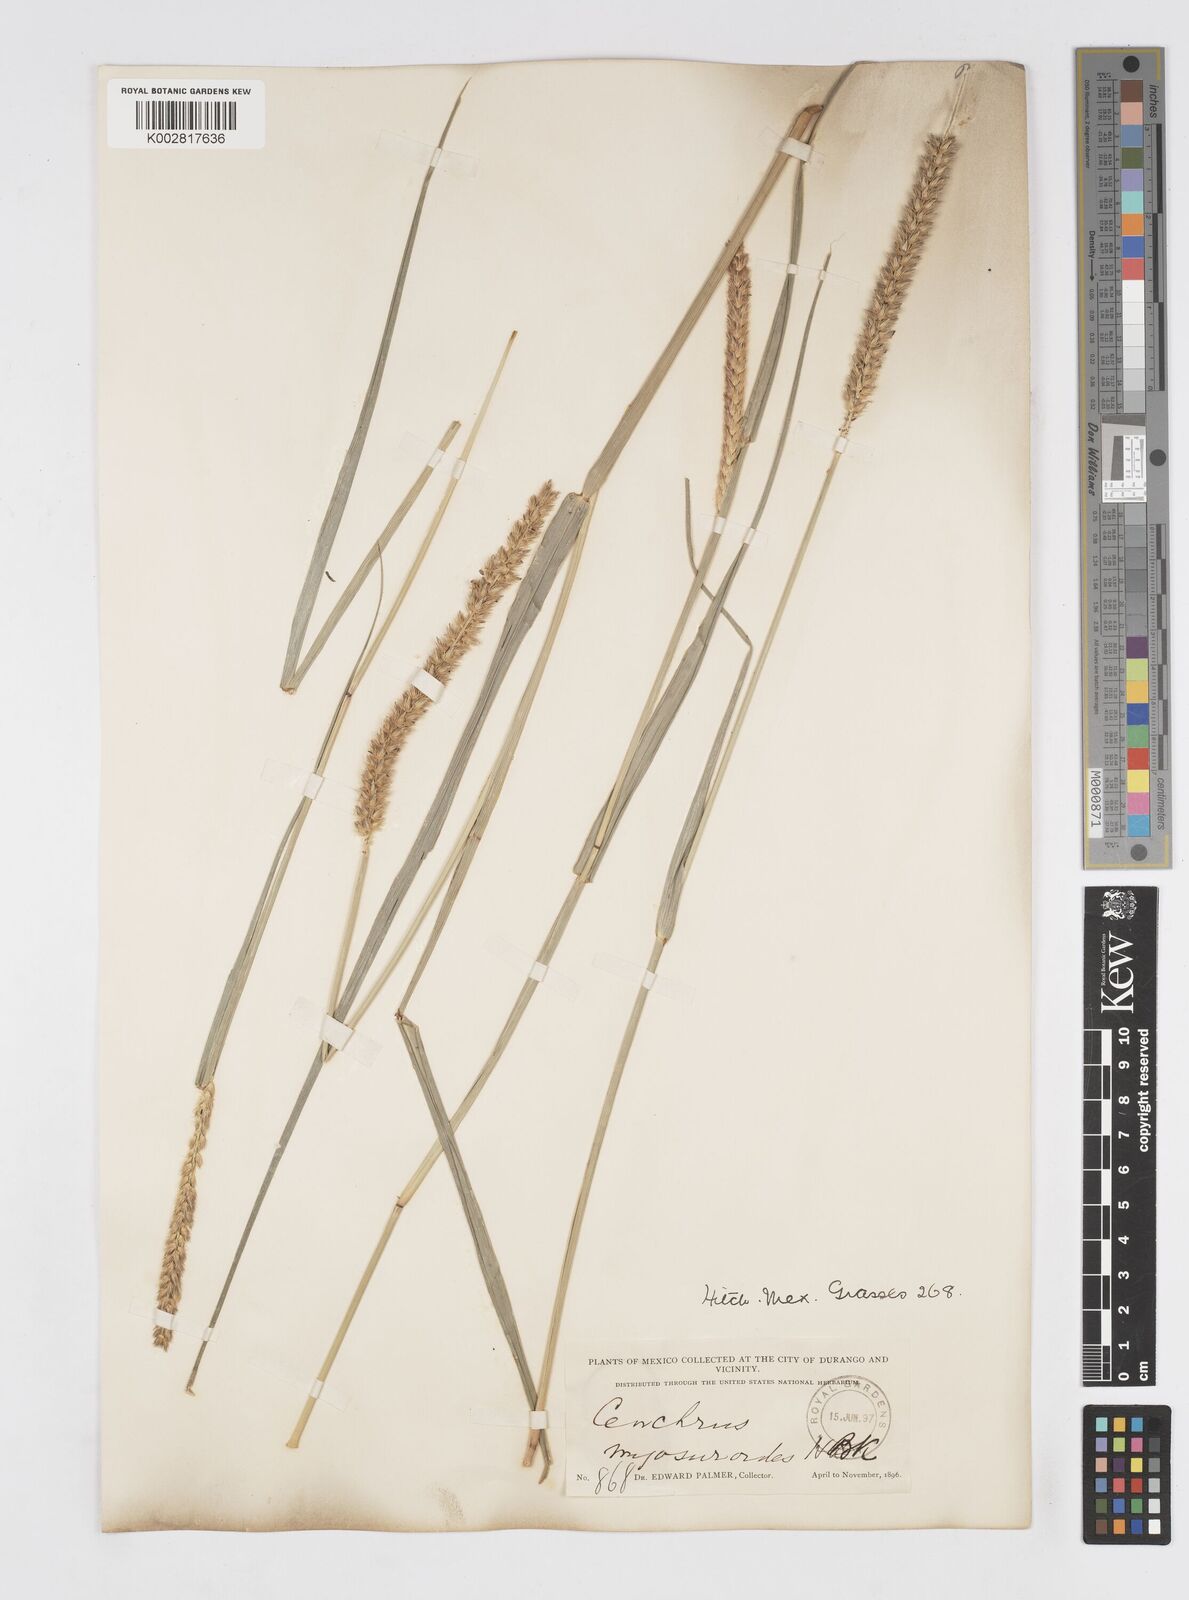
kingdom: Plantae
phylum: Tracheophyta
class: Liliopsida
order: Poales
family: Poaceae
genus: Cenchrus
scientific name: Cenchrus myosuroides
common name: Big sandbur
